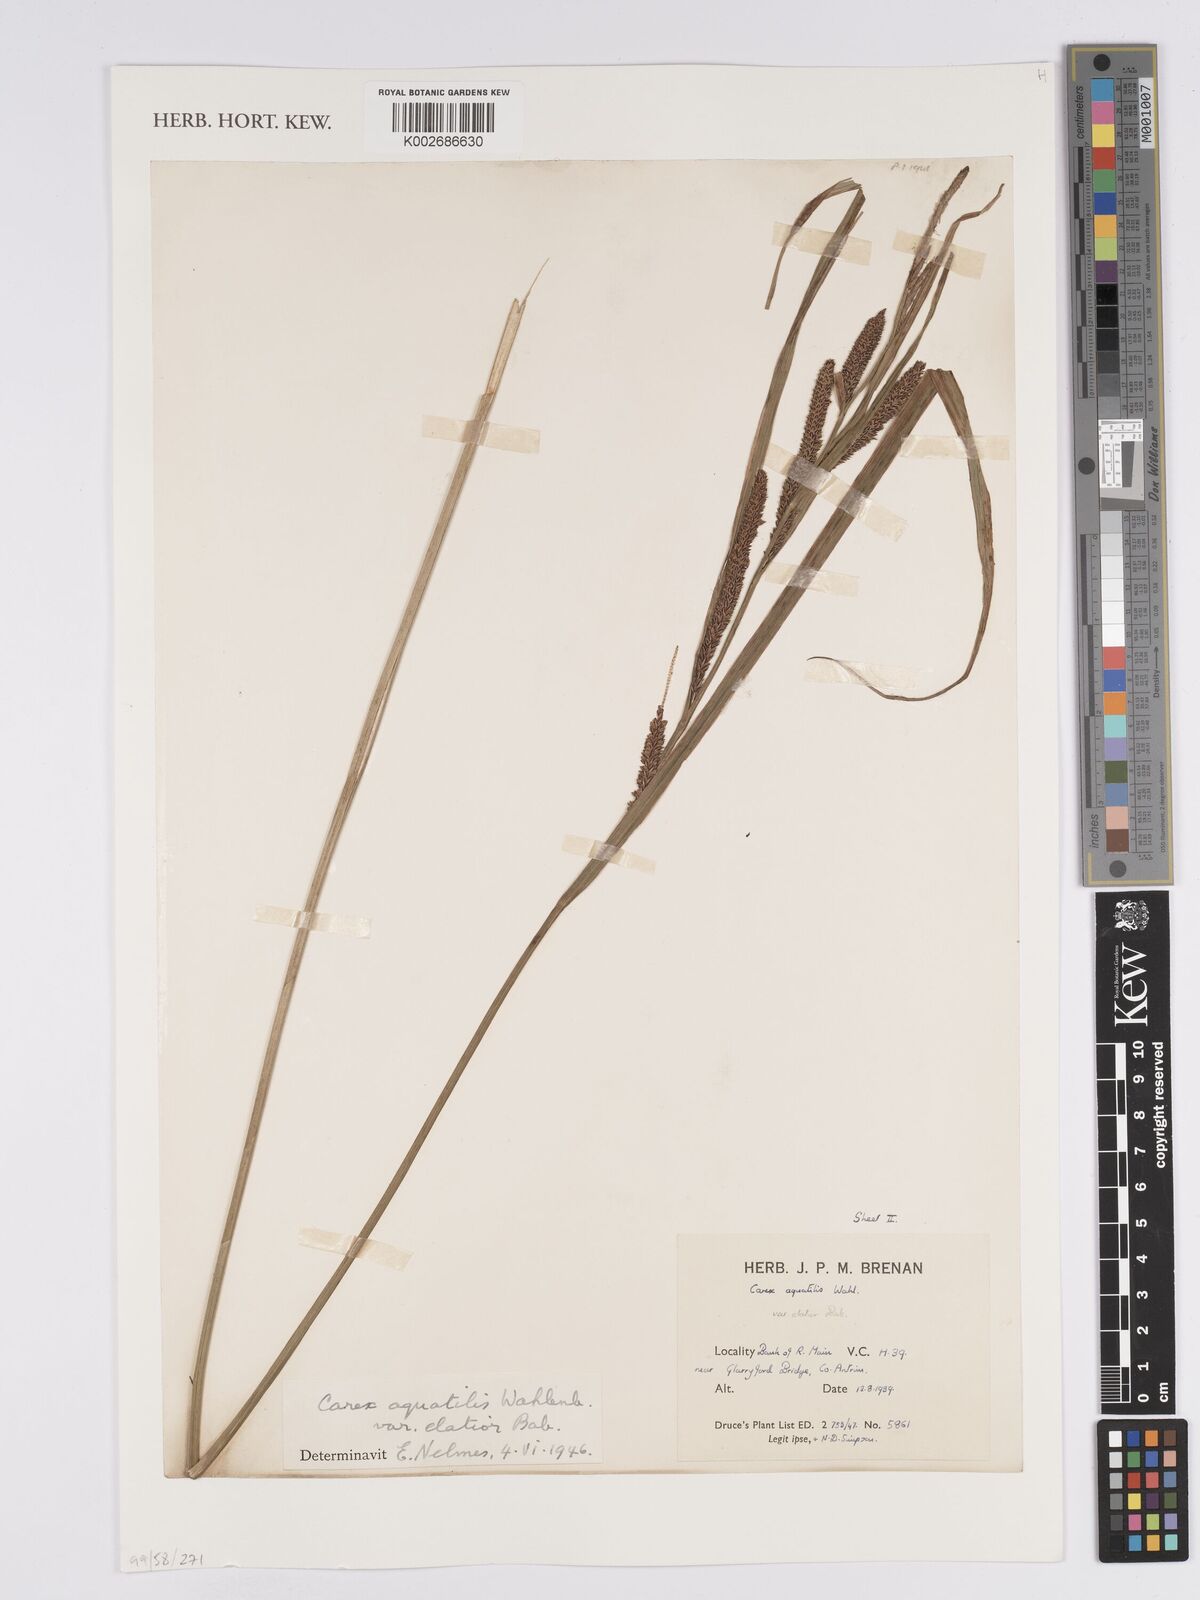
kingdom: Plantae
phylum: Tracheophyta
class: Liliopsida
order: Poales
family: Cyperaceae
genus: Carex
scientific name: Carex aquatilis
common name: Water sedge
